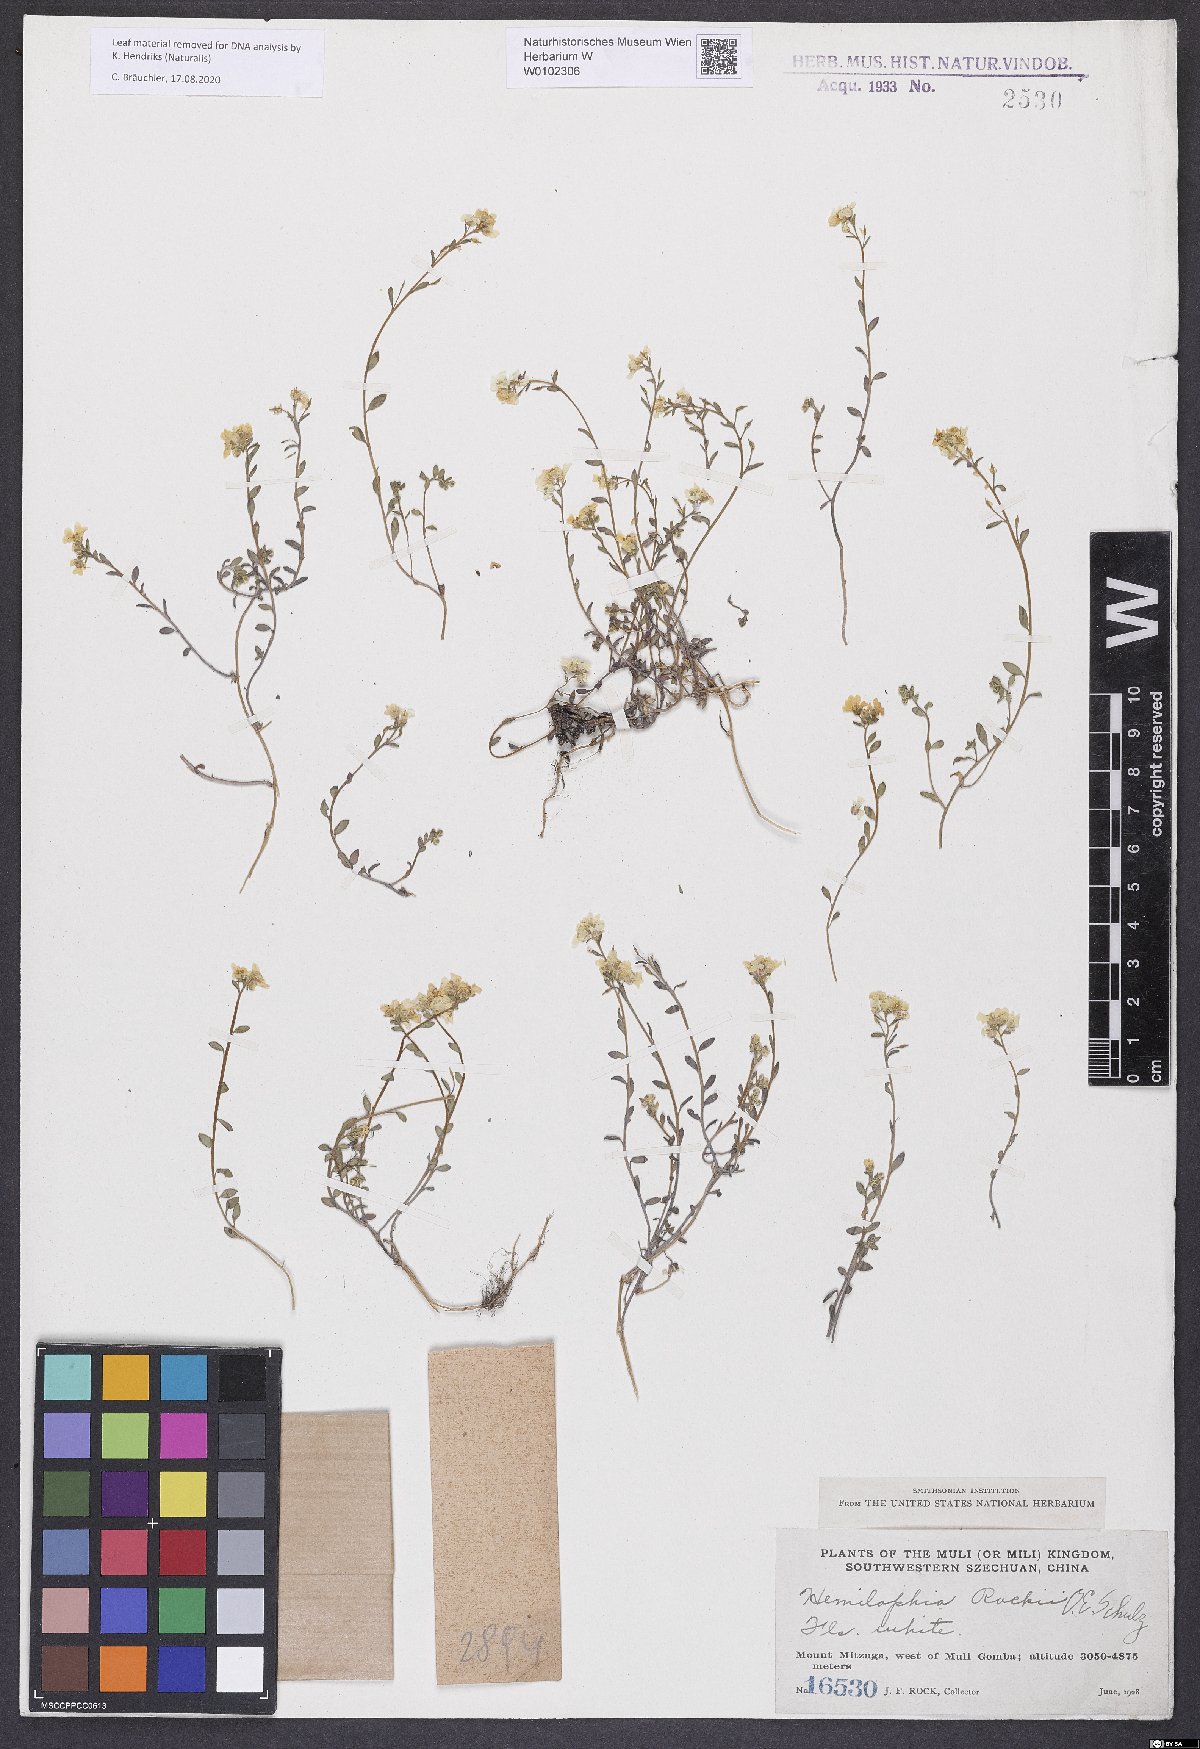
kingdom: Plantae
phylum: Tracheophyta
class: Magnoliopsida
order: Brassicales
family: Brassicaceae
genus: Hemilophia
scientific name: Hemilophia rockii
